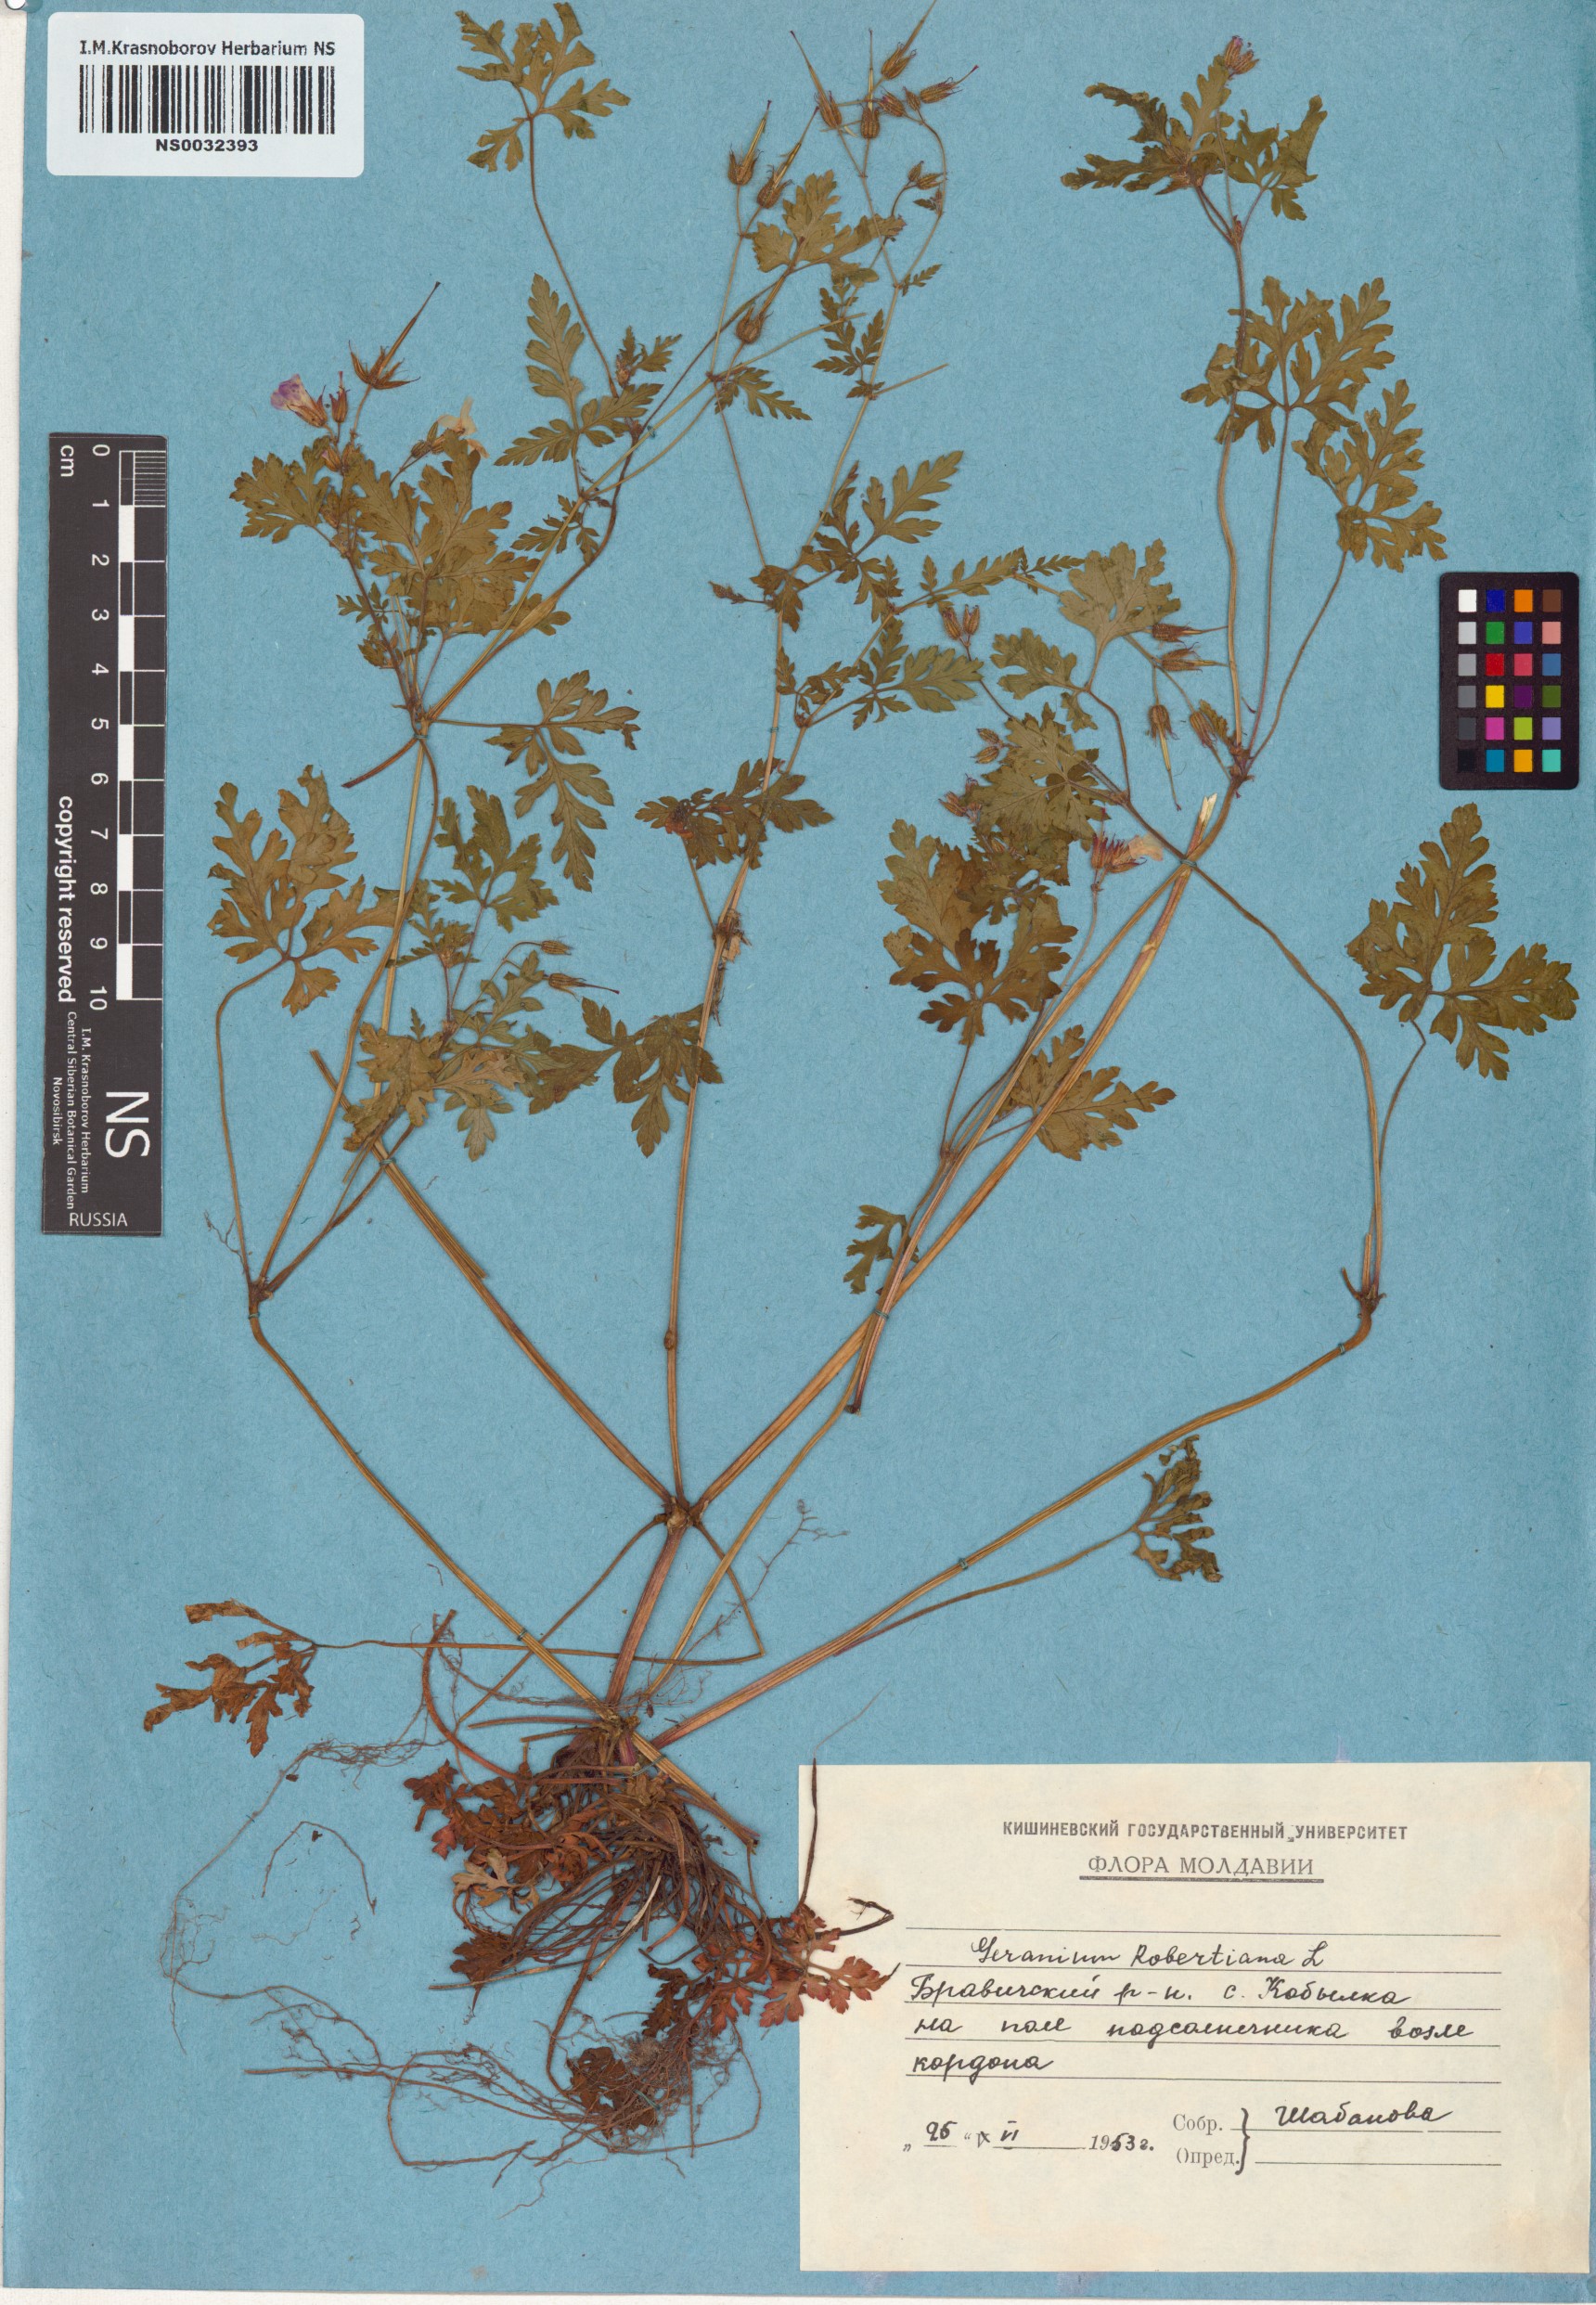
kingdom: Plantae
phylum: Tracheophyta
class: Magnoliopsida
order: Geraniales
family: Geraniaceae
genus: Geranium
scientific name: Geranium robertianum
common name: Herb-robert
